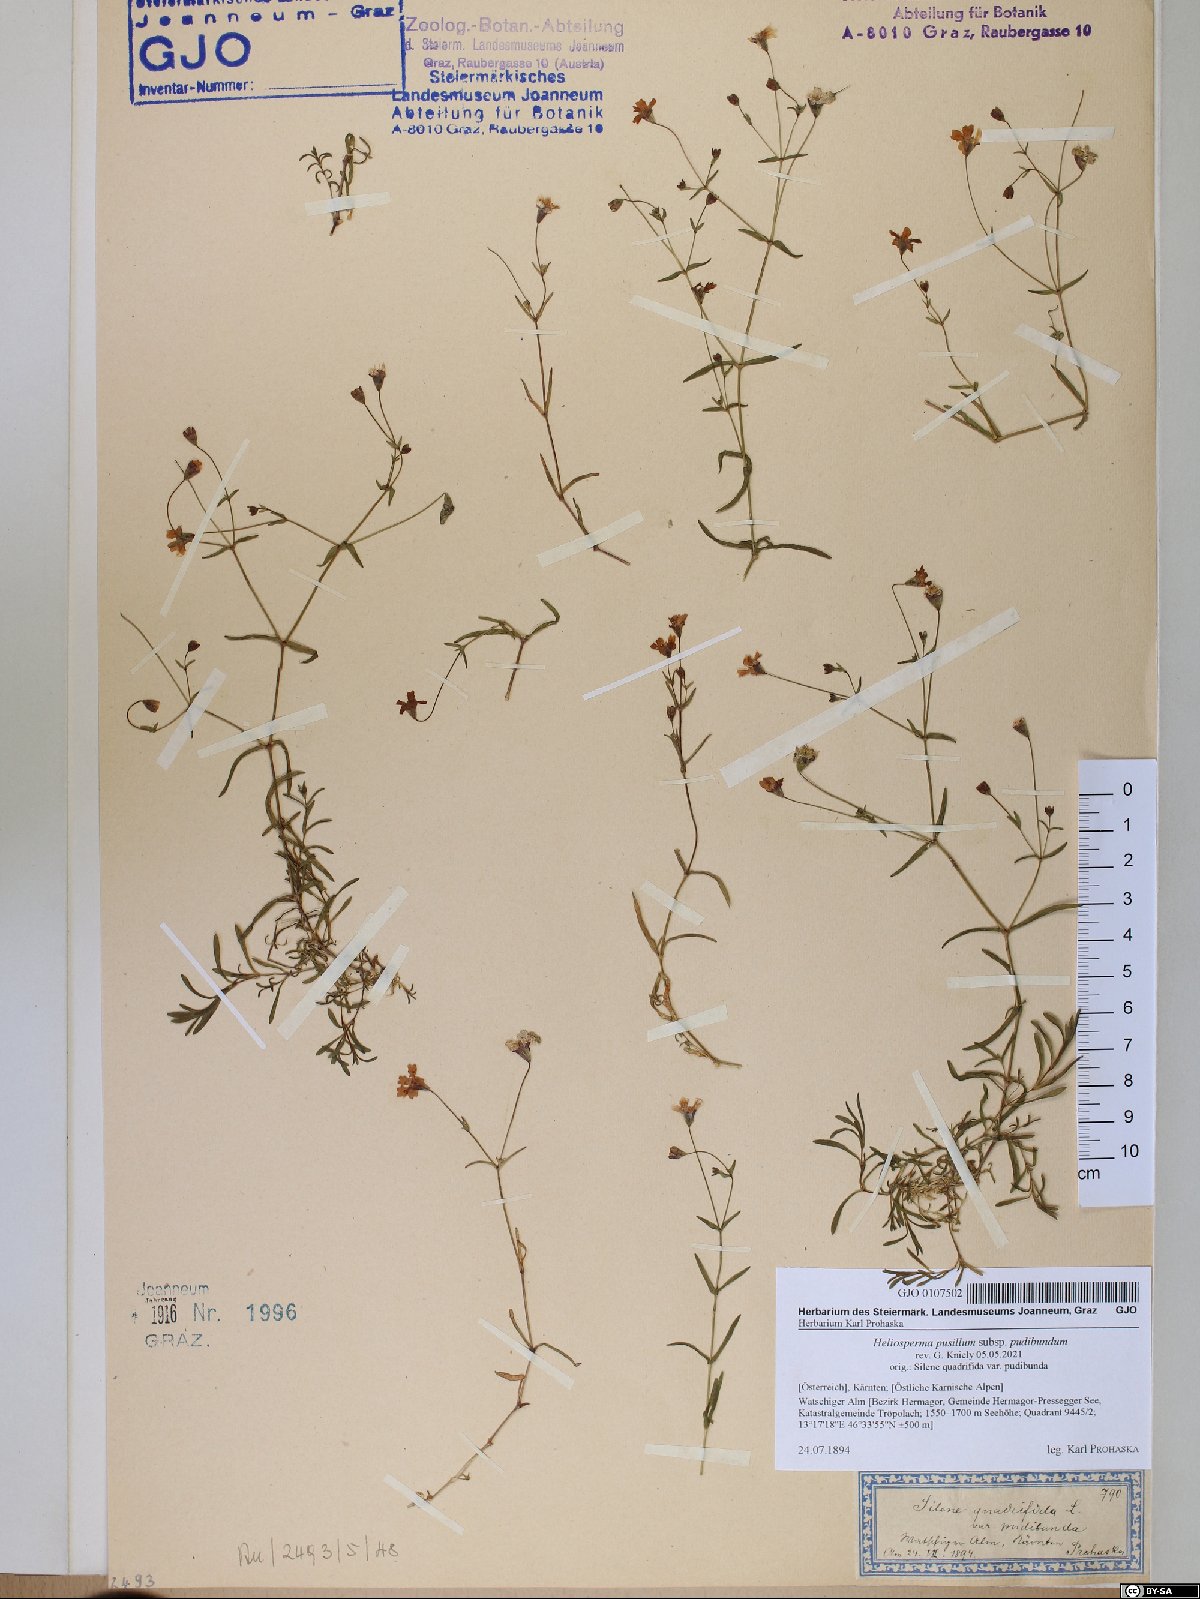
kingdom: Plantae
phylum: Tracheophyta
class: Magnoliopsida
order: Caryophyllales
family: Caryophyllaceae
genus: Heliosperma
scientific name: Heliosperma pudibundum
